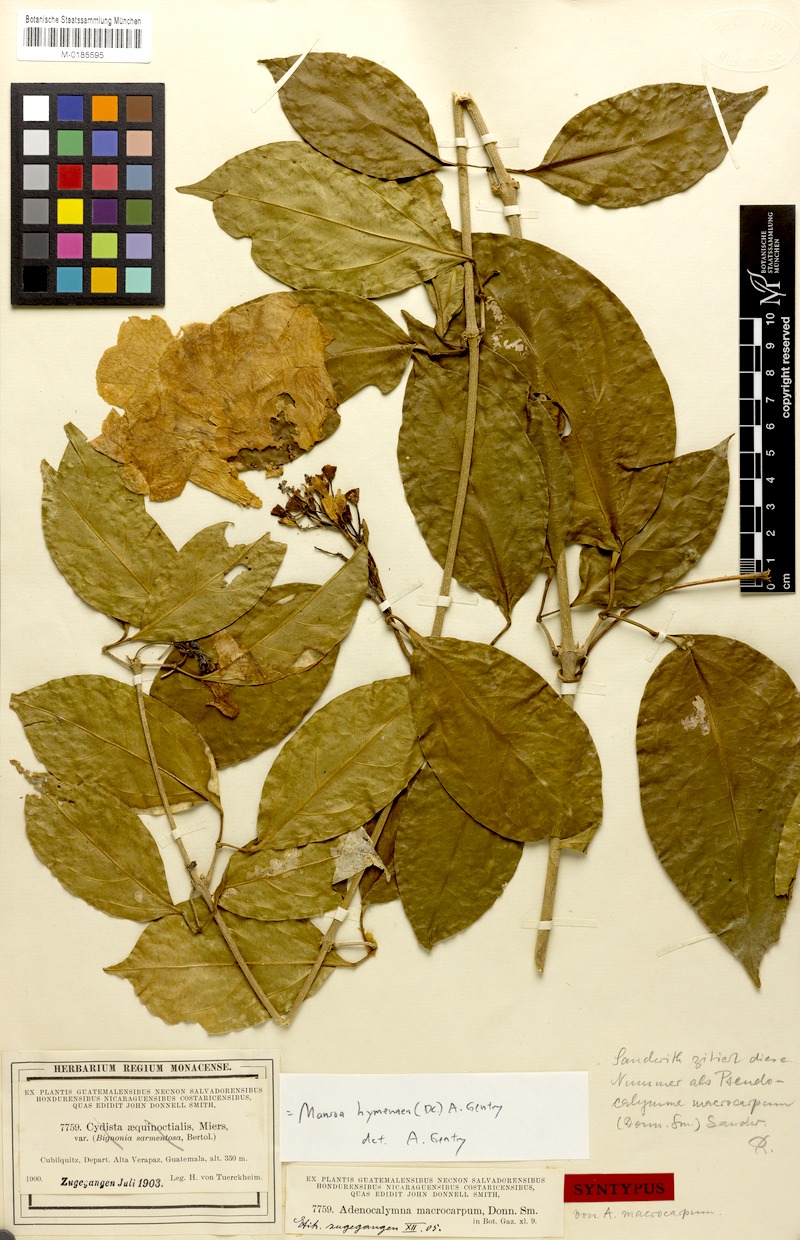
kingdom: Plantae
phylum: Tracheophyta
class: Magnoliopsida
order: Lamiales
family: Bignoniaceae
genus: Mansoa
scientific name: Mansoa hymenaea
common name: Membranous garlic vine
